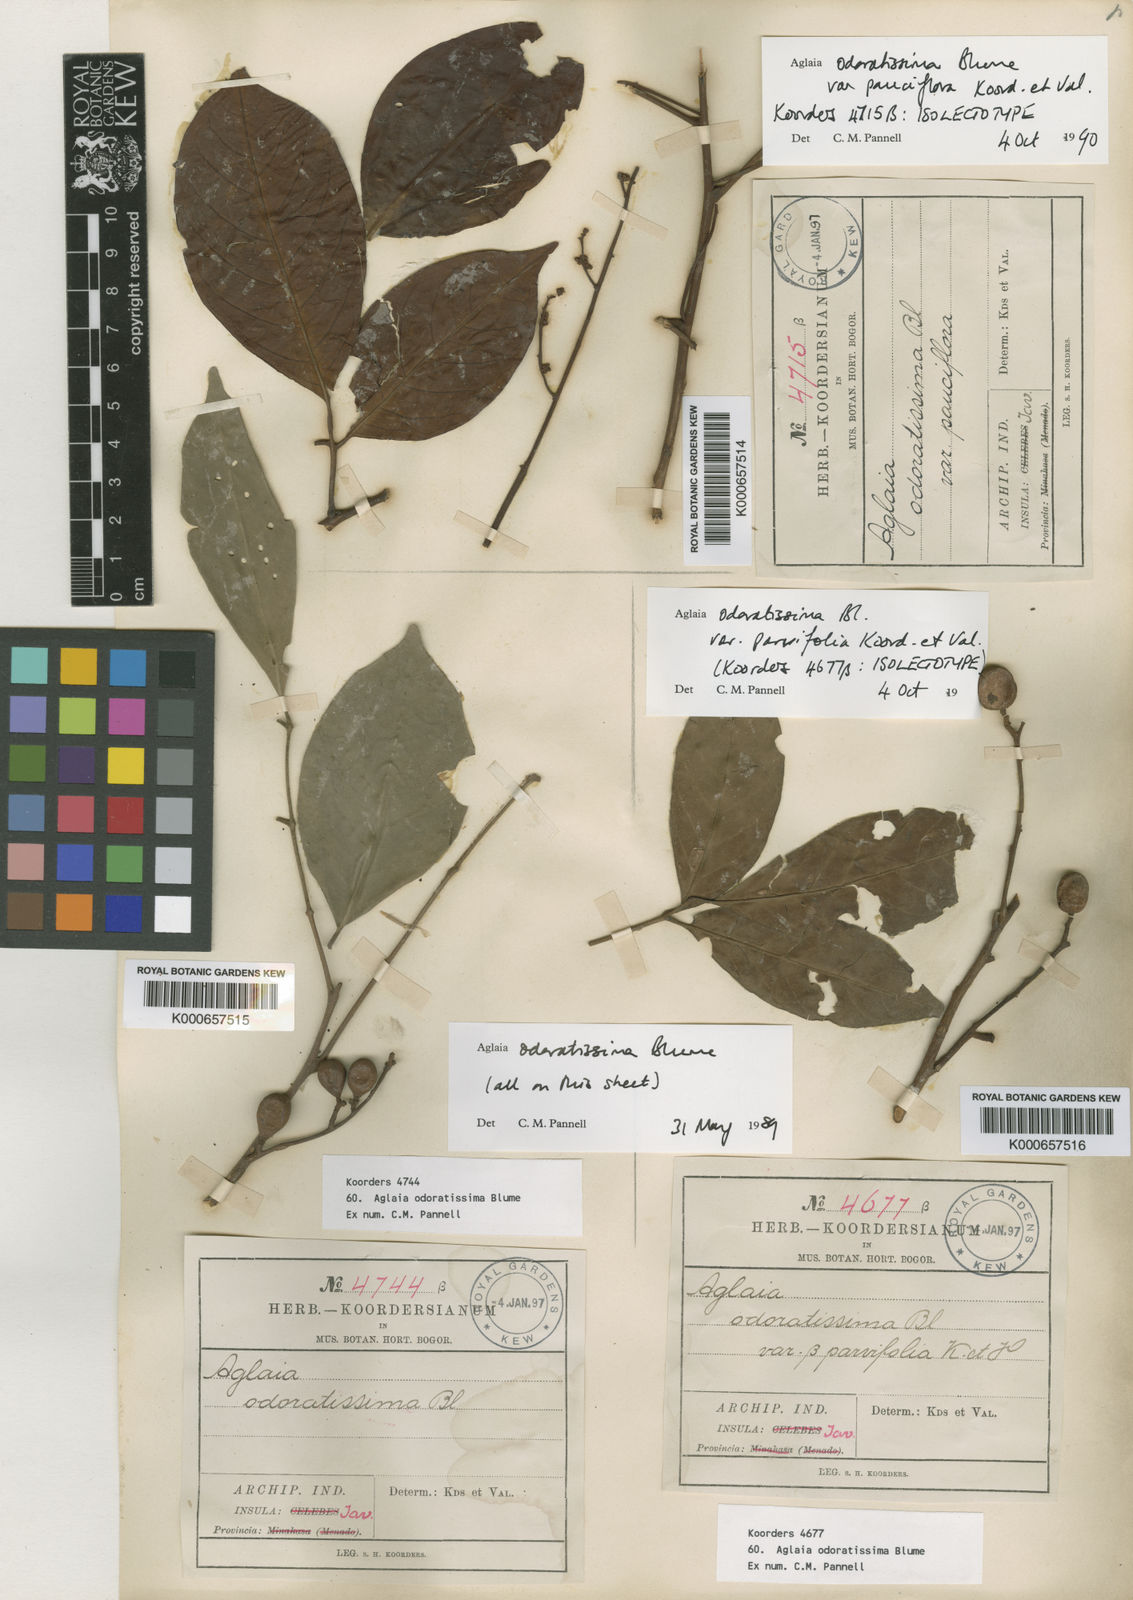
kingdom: Plantae
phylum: Tracheophyta
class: Magnoliopsida
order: Sapindales
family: Meliaceae
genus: Aglaia
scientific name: Aglaia odoratissima
